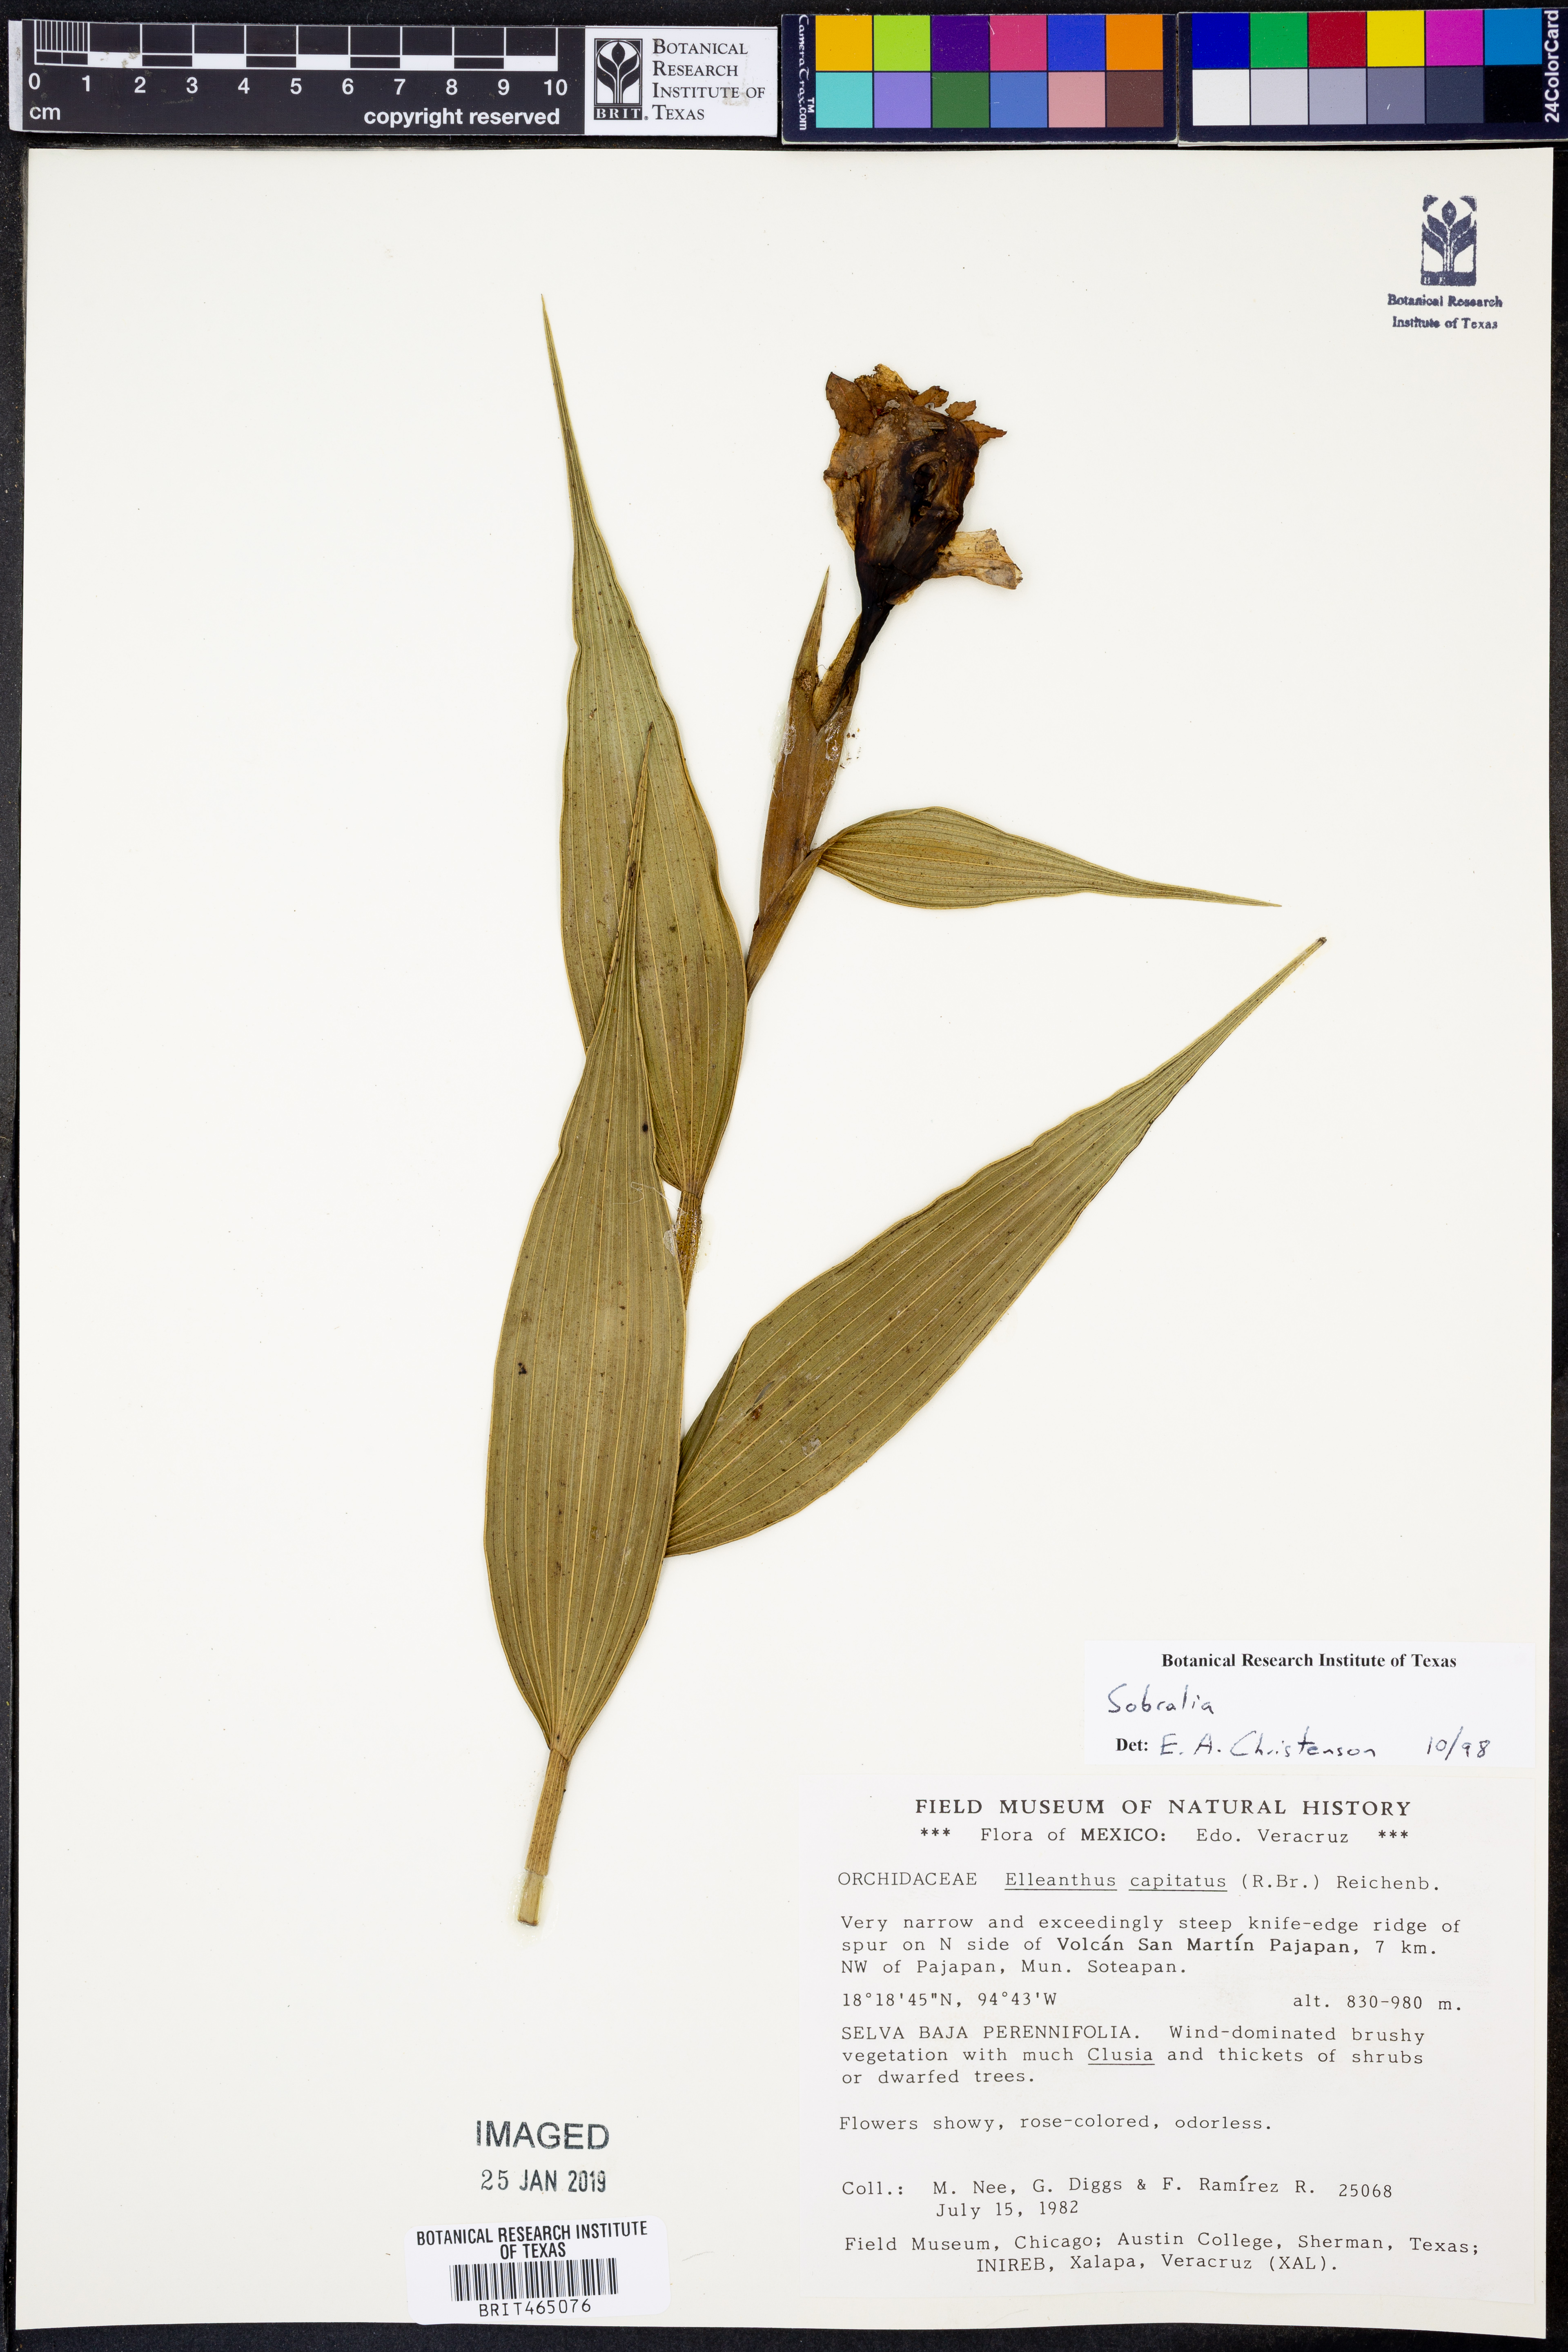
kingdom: Plantae
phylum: Tracheophyta
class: Liliopsida
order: Asparagales
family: Orchidaceae
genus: Sobralia
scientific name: Sobralia
